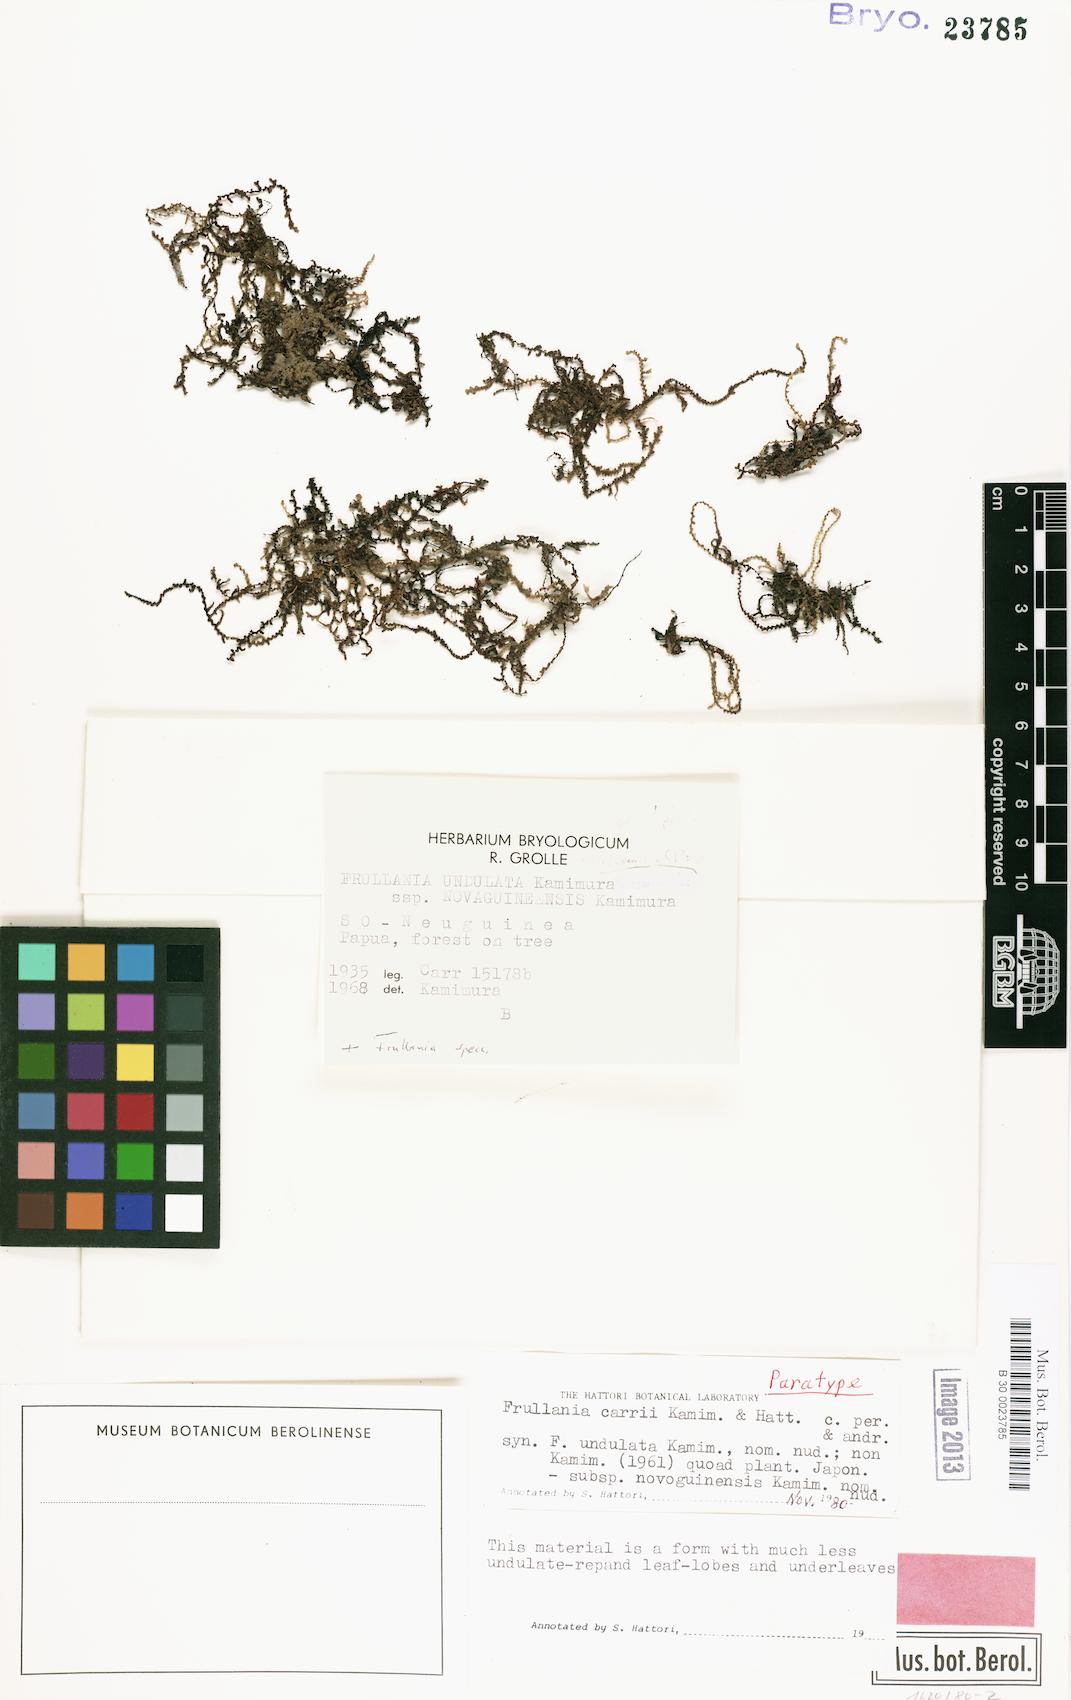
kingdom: Plantae
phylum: Marchantiophyta
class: Jungermanniopsida
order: Porellales
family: Frullaniaceae
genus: Frullania
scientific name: Frullania carrii
